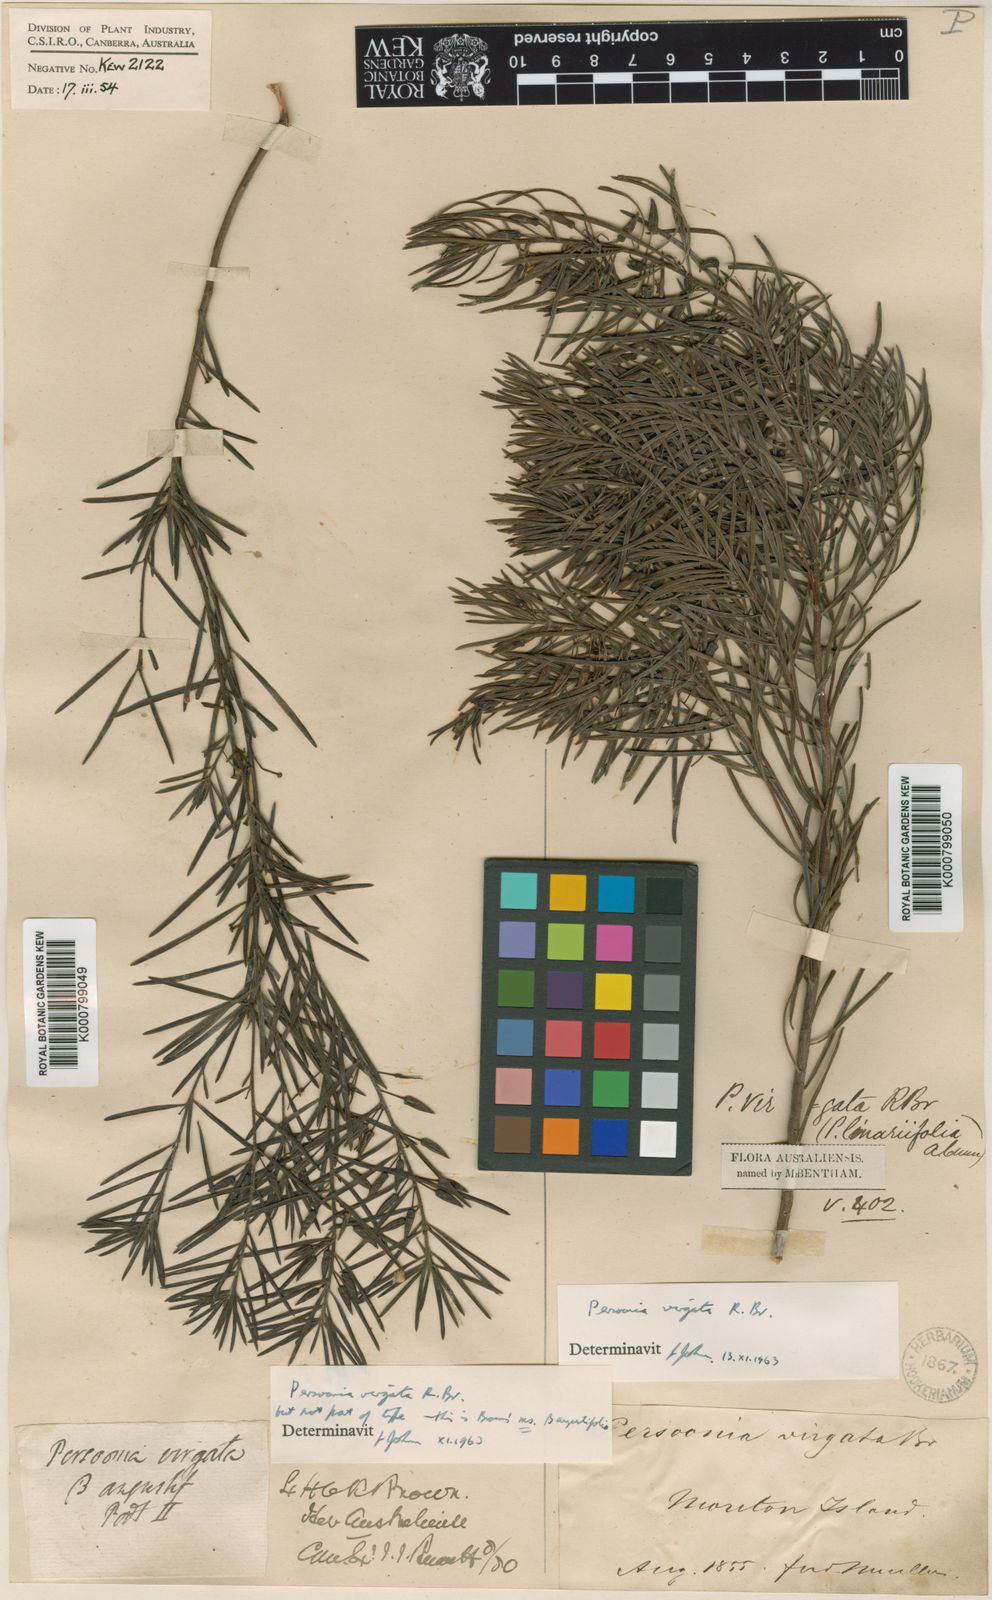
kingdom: Plantae
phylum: Tracheophyta
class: Magnoliopsida
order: Proteales
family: Proteaceae
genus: Persoonia
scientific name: Persoonia virgata
